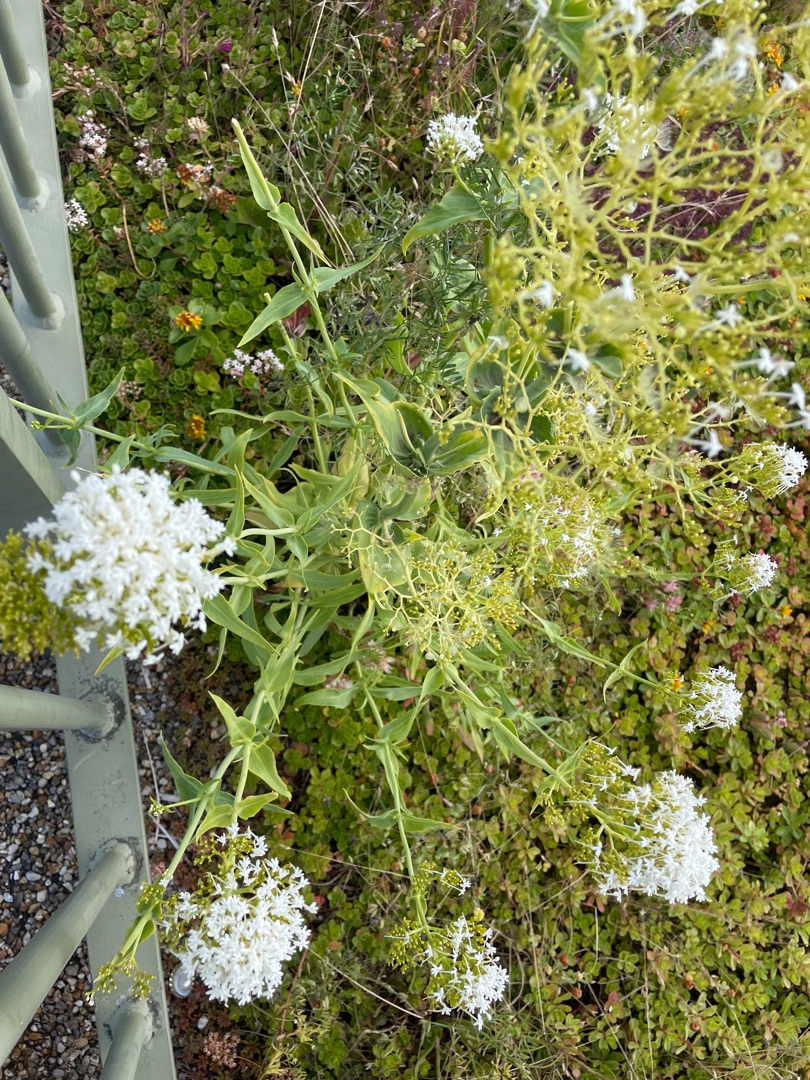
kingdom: Plantae
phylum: Tracheophyta
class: Magnoliopsida
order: Dipsacales
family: Caprifoliaceae
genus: Centranthus
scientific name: Centranthus ruber
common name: Sporebaldrian
